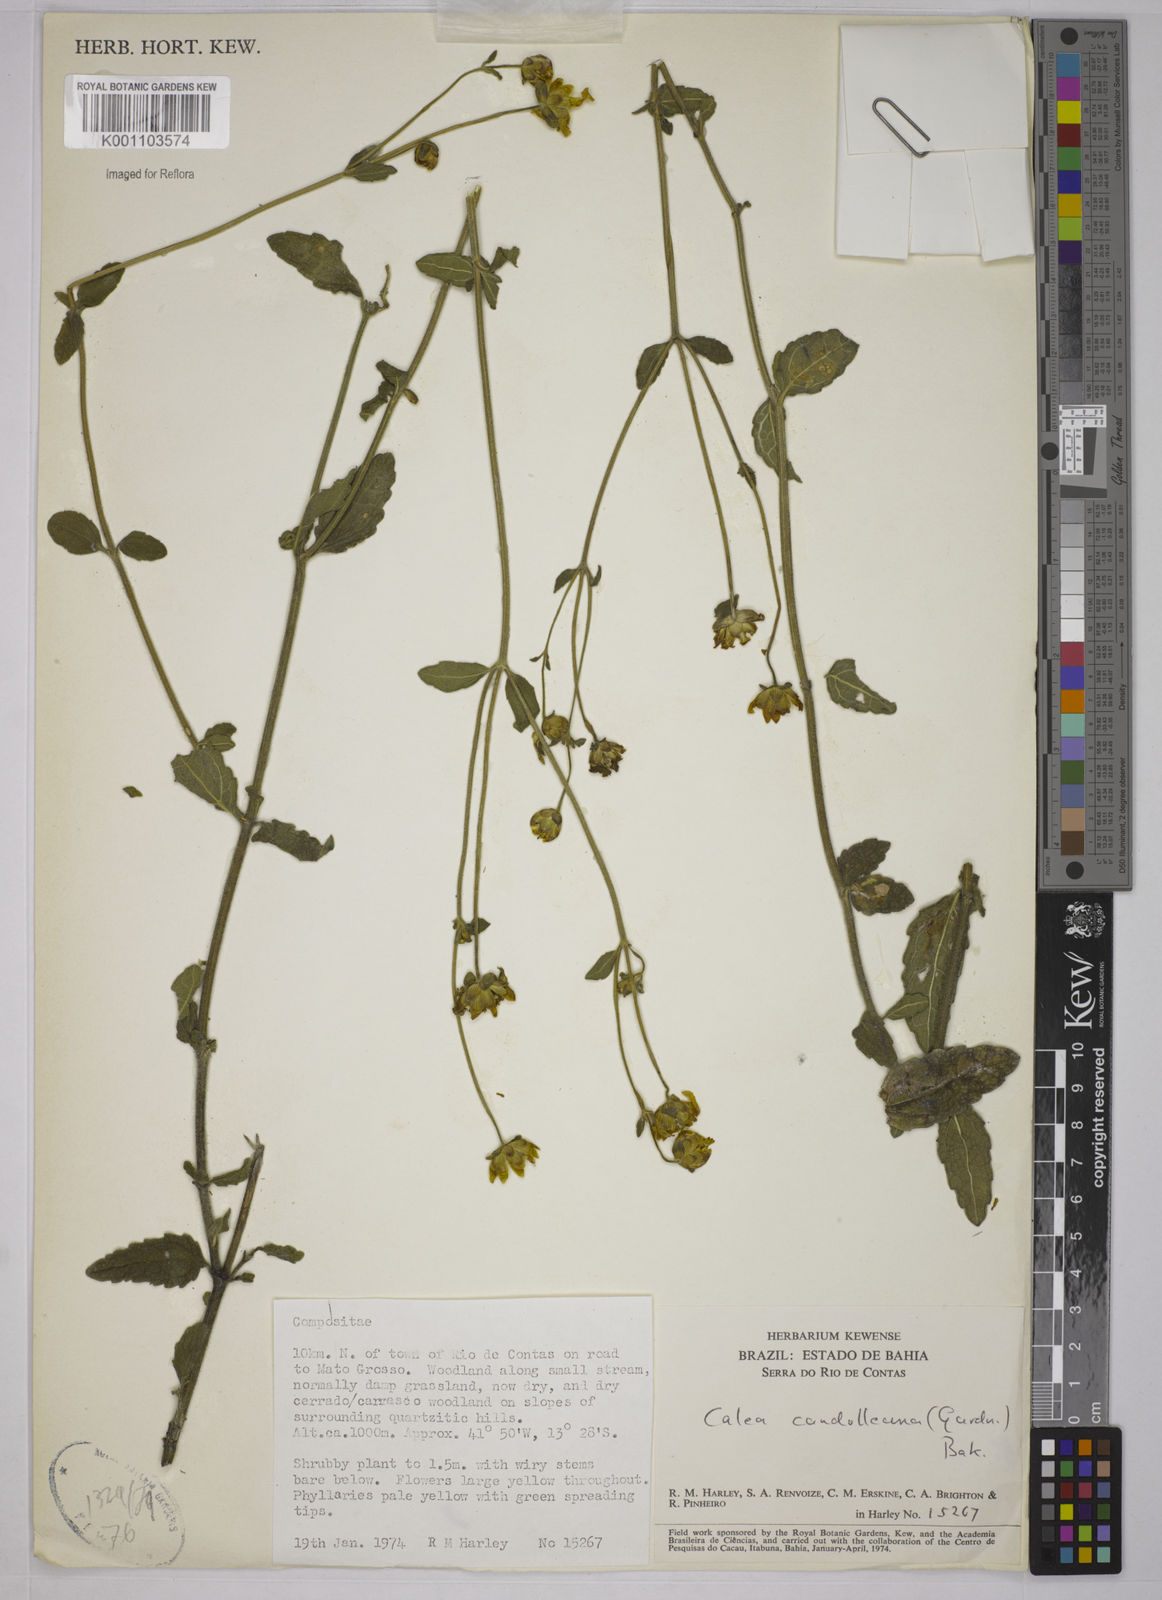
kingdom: Plantae
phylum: Tracheophyta
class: Magnoliopsida
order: Asterales
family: Asteraceae
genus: Calea
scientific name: Calea candolleana
